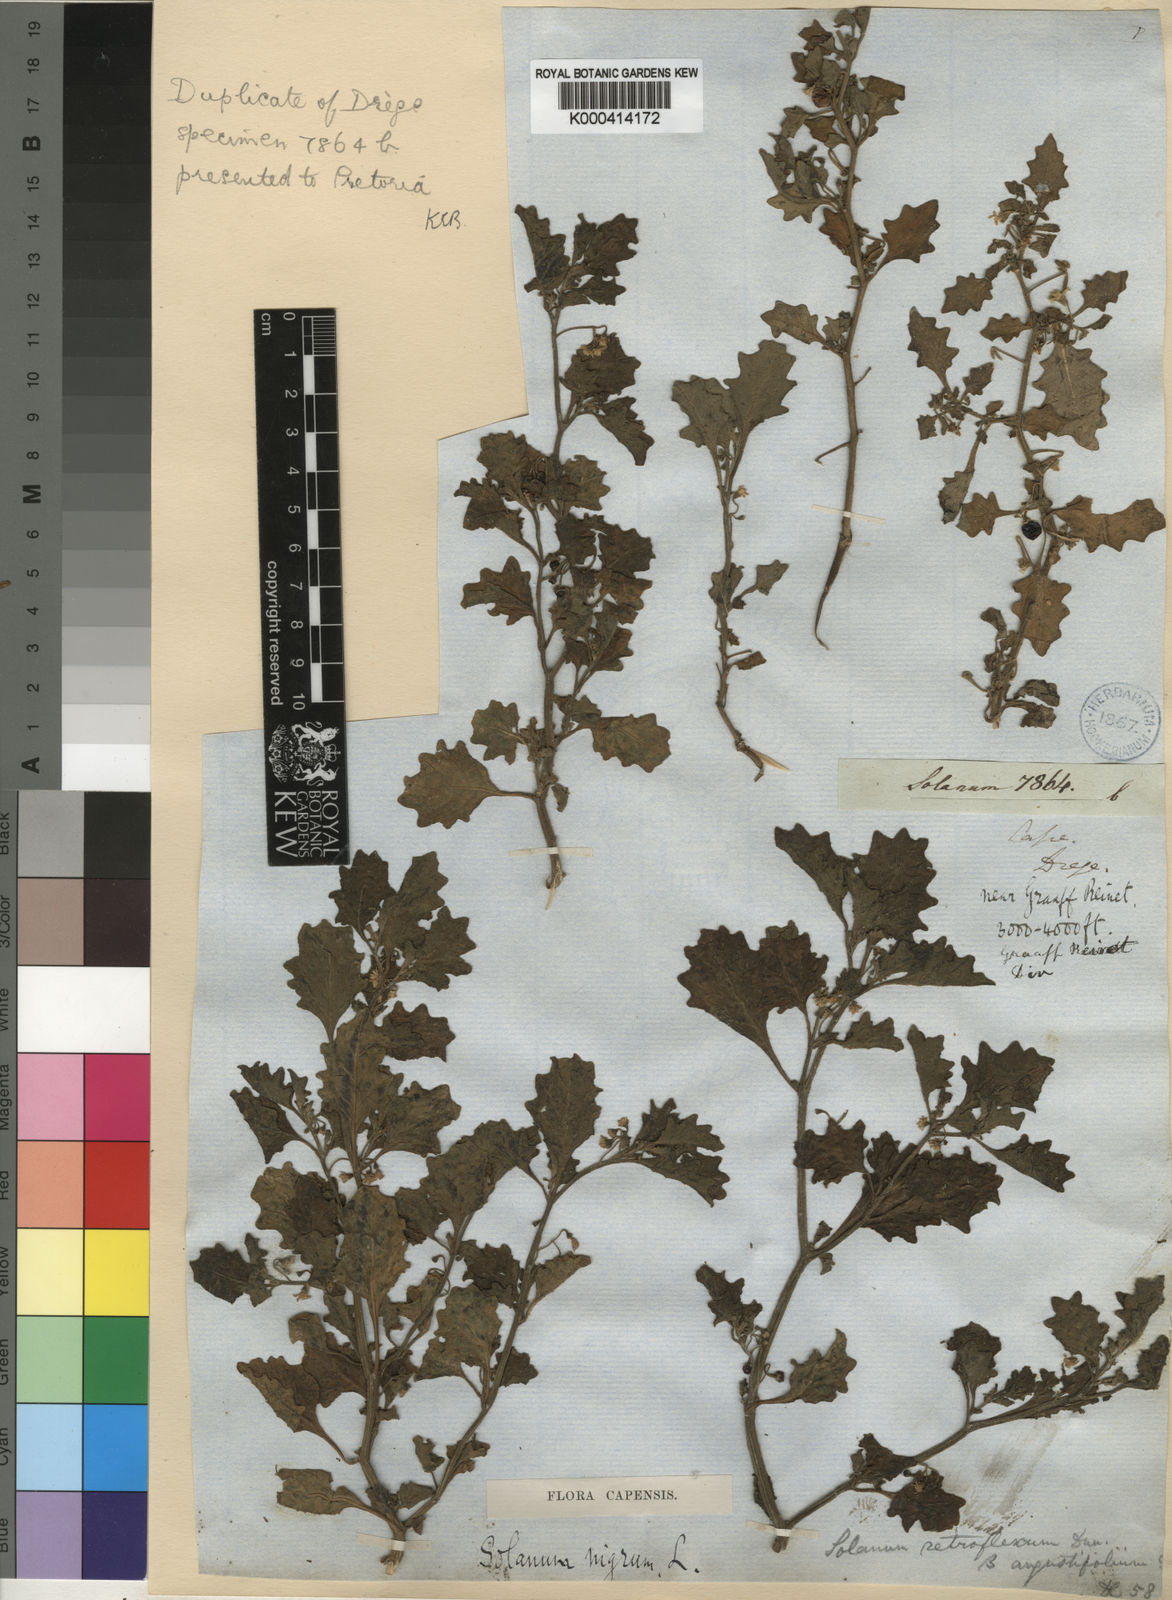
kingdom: Plantae
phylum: Tracheophyta
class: Magnoliopsida
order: Solanales
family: Solanaceae
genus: Solanum
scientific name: Solanum retroflexum
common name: Wonderberry
